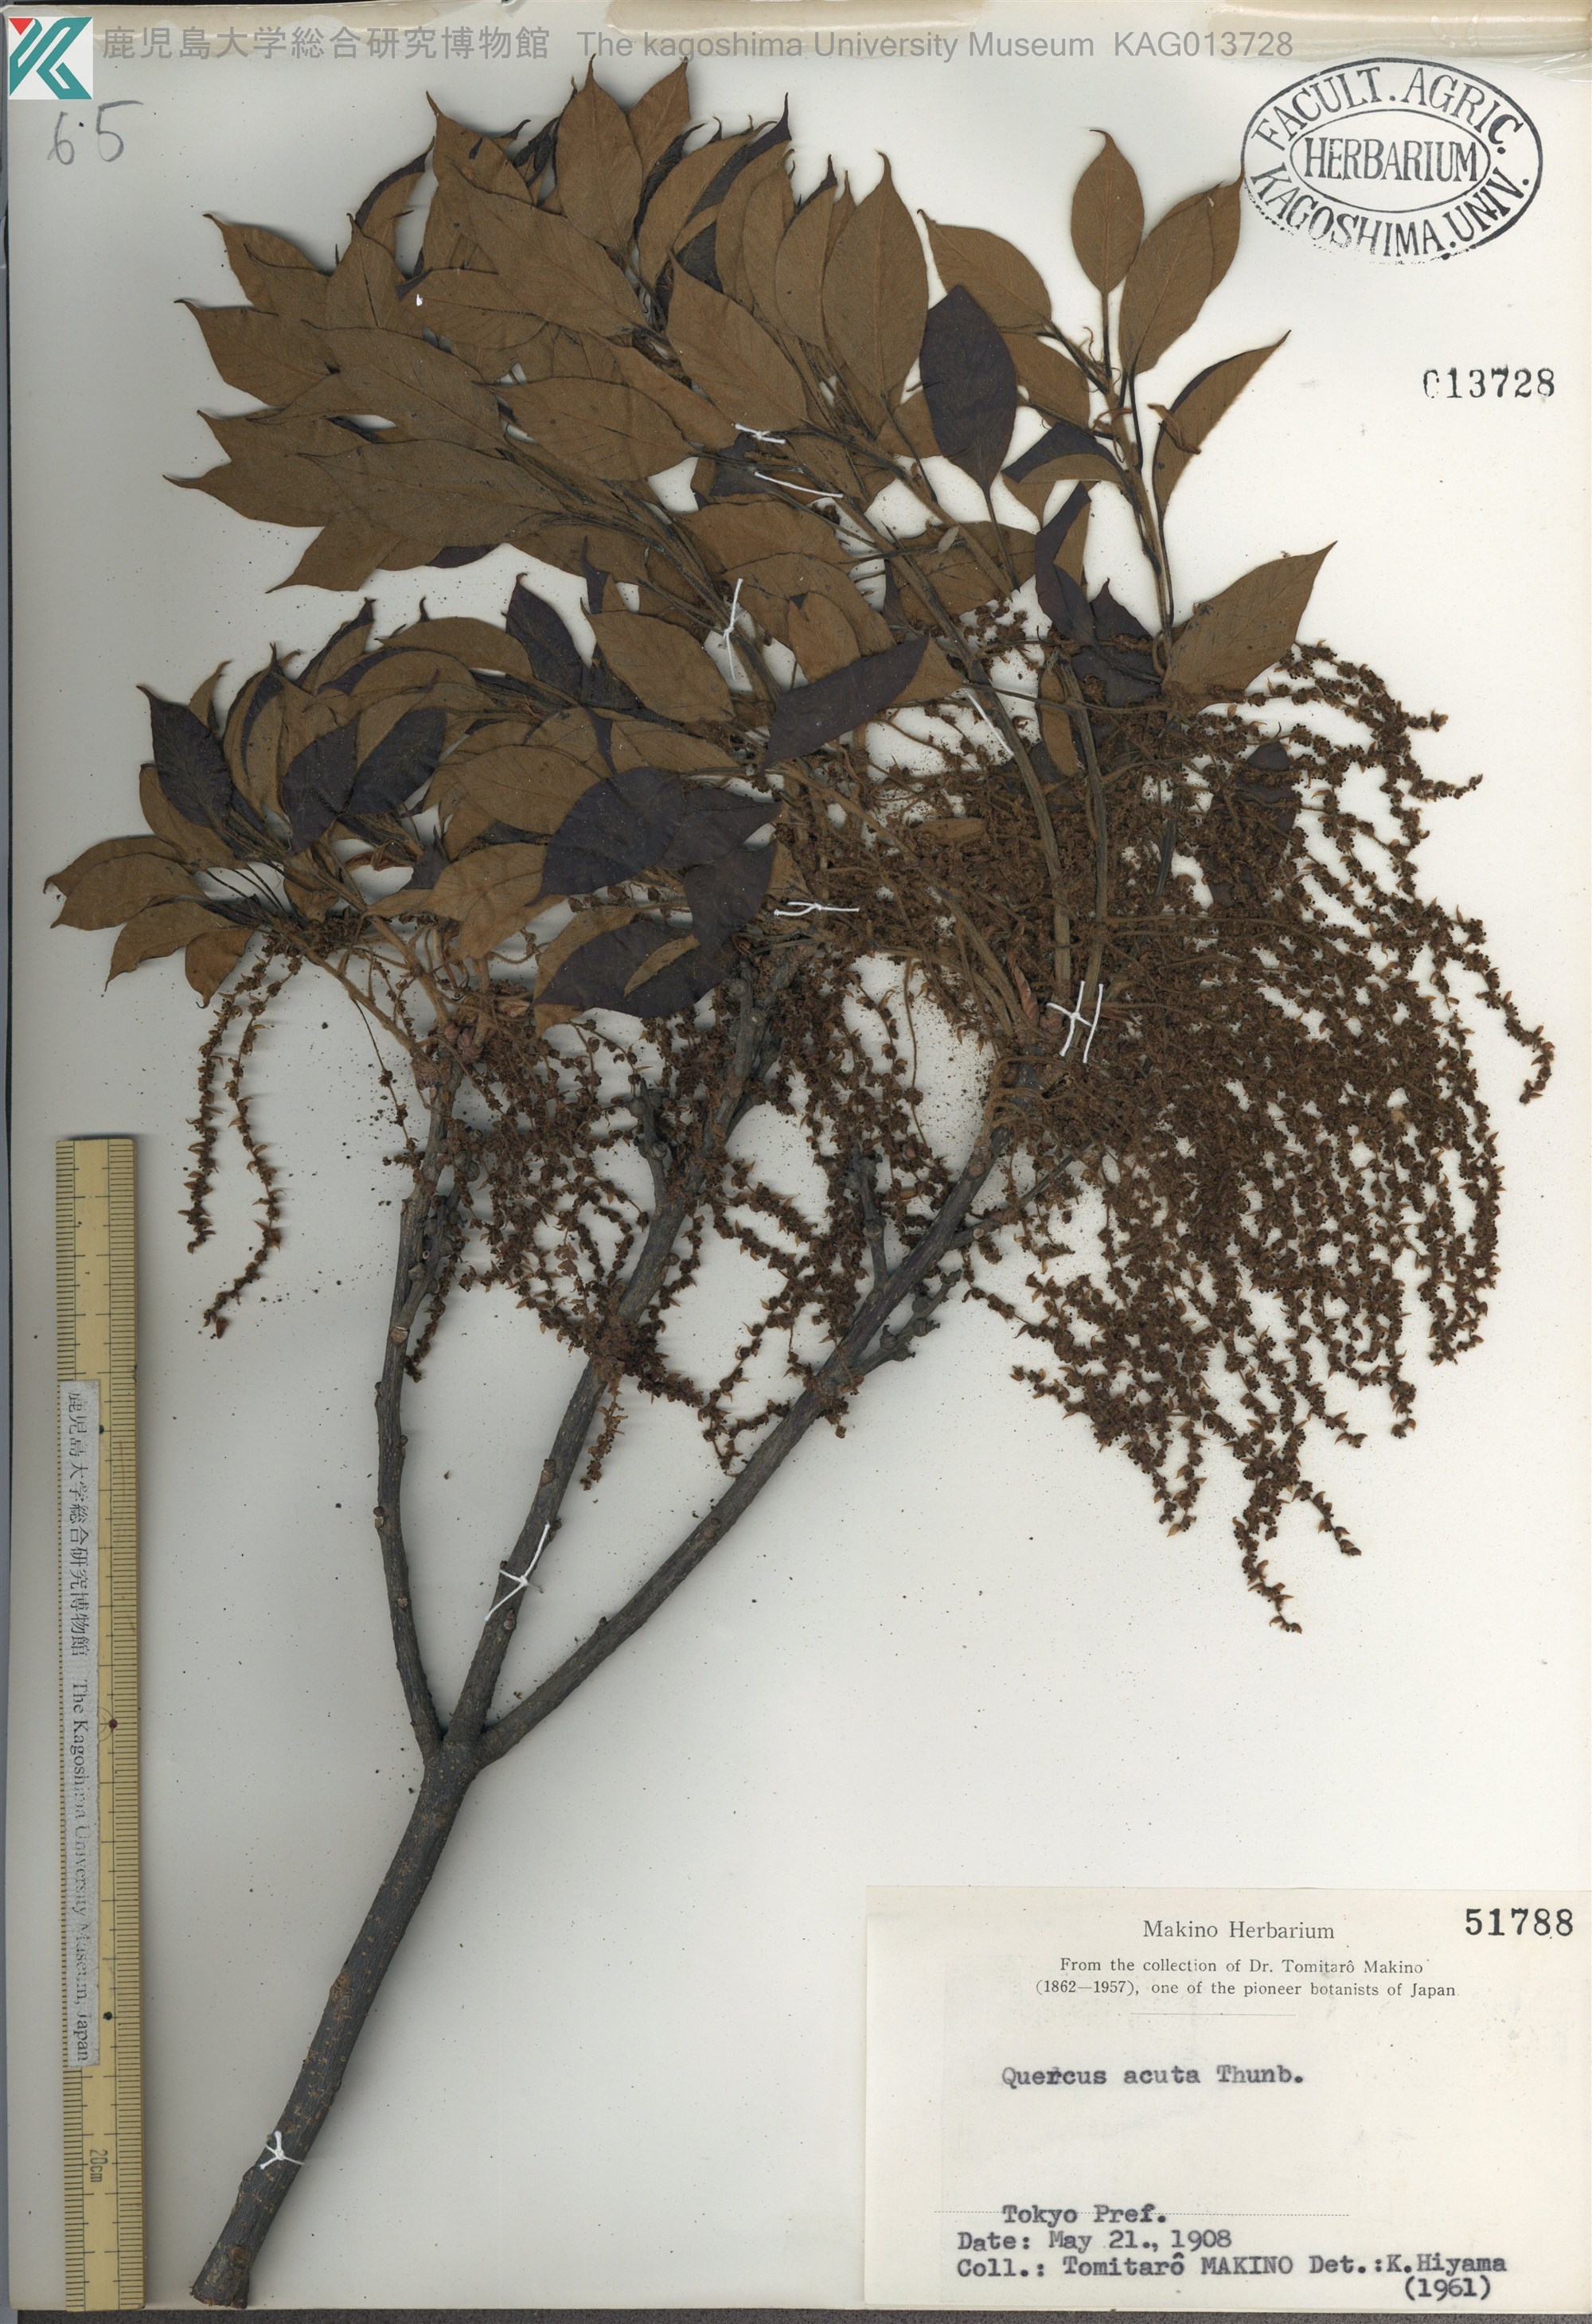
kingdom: Plantae
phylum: Tracheophyta
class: Magnoliopsida
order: Fagales
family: Fagaceae
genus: Quercus
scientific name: Quercus acuta
